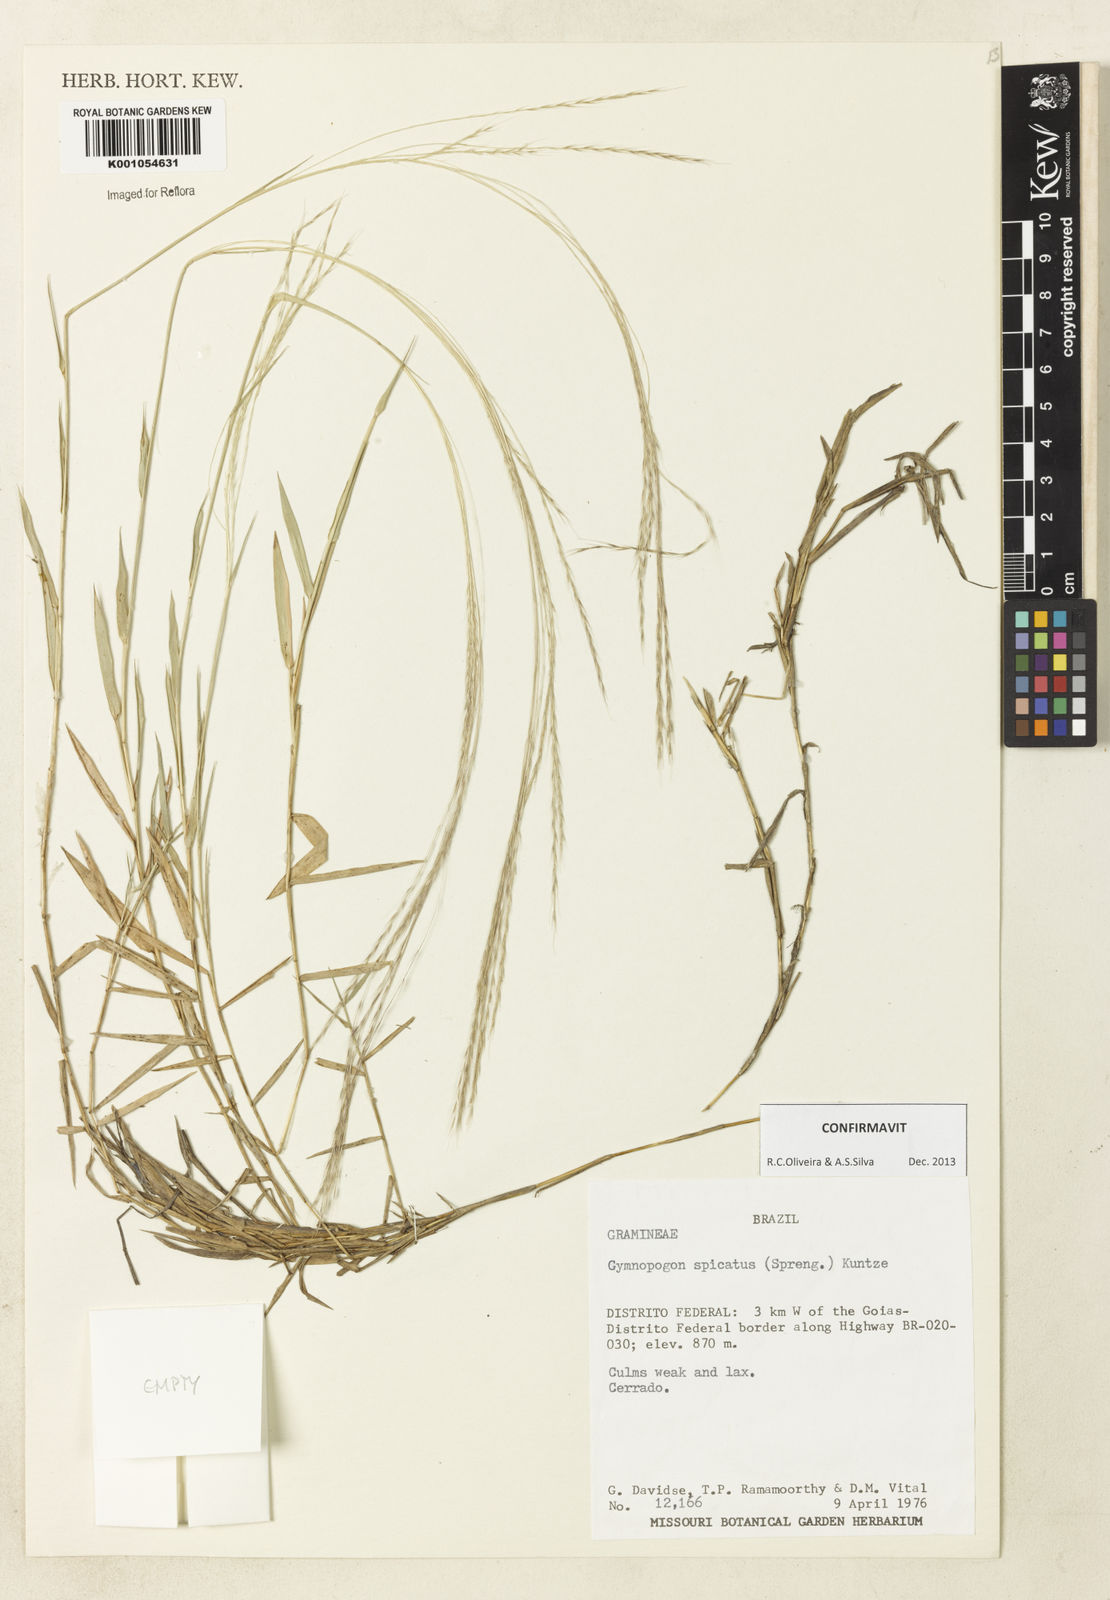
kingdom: Plantae
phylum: Tracheophyta
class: Liliopsida
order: Poales
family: Poaceae
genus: Gymnopogon
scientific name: Gymnopogon spicatus
